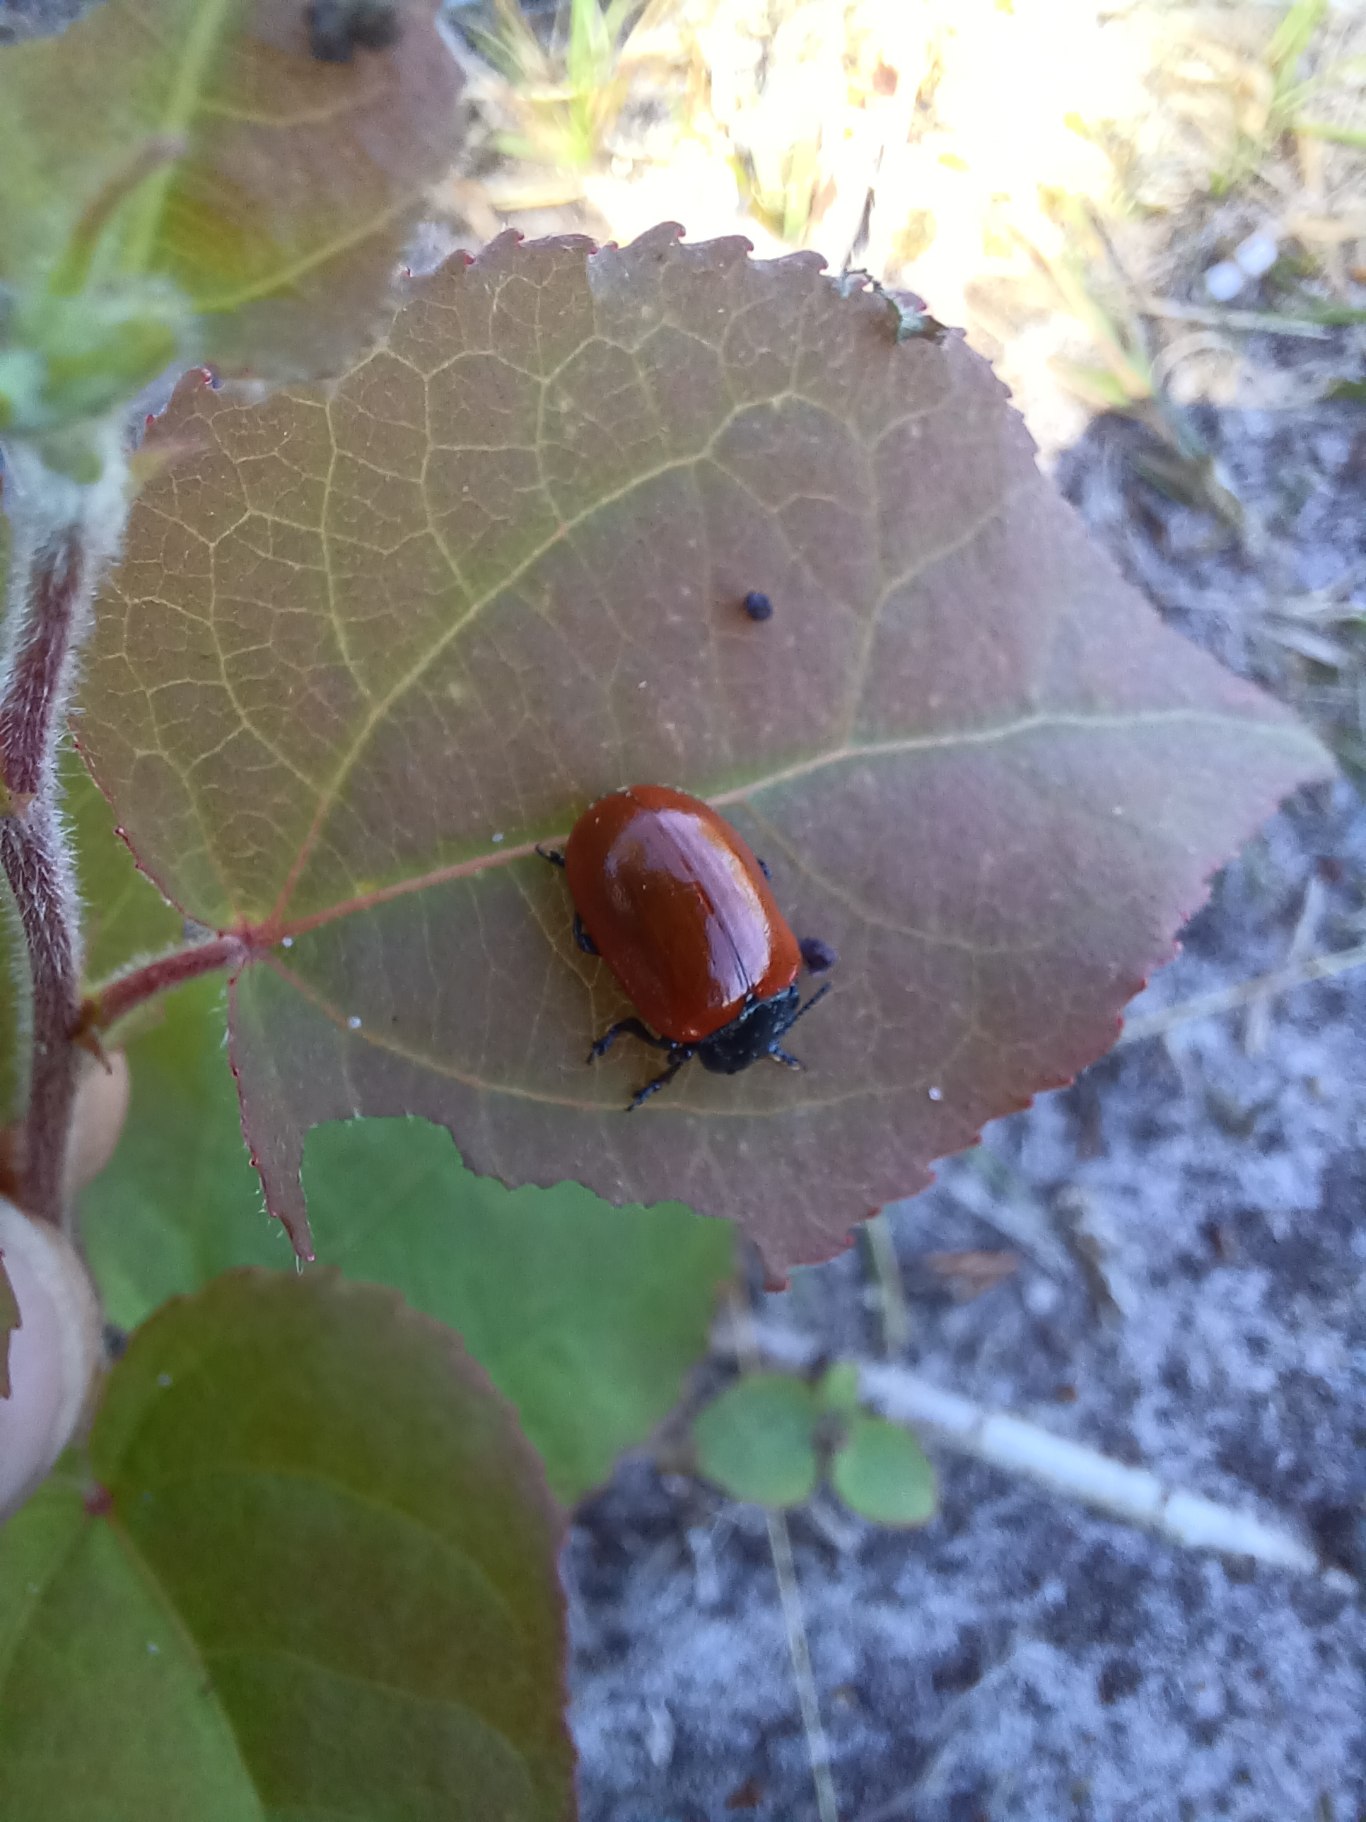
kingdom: Animalia
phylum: Arthropoda
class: Insecta
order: Coleoptera
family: Chrysomelidae
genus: Chrysomela
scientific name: Chrysomela populi
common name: Poppelbladbille
